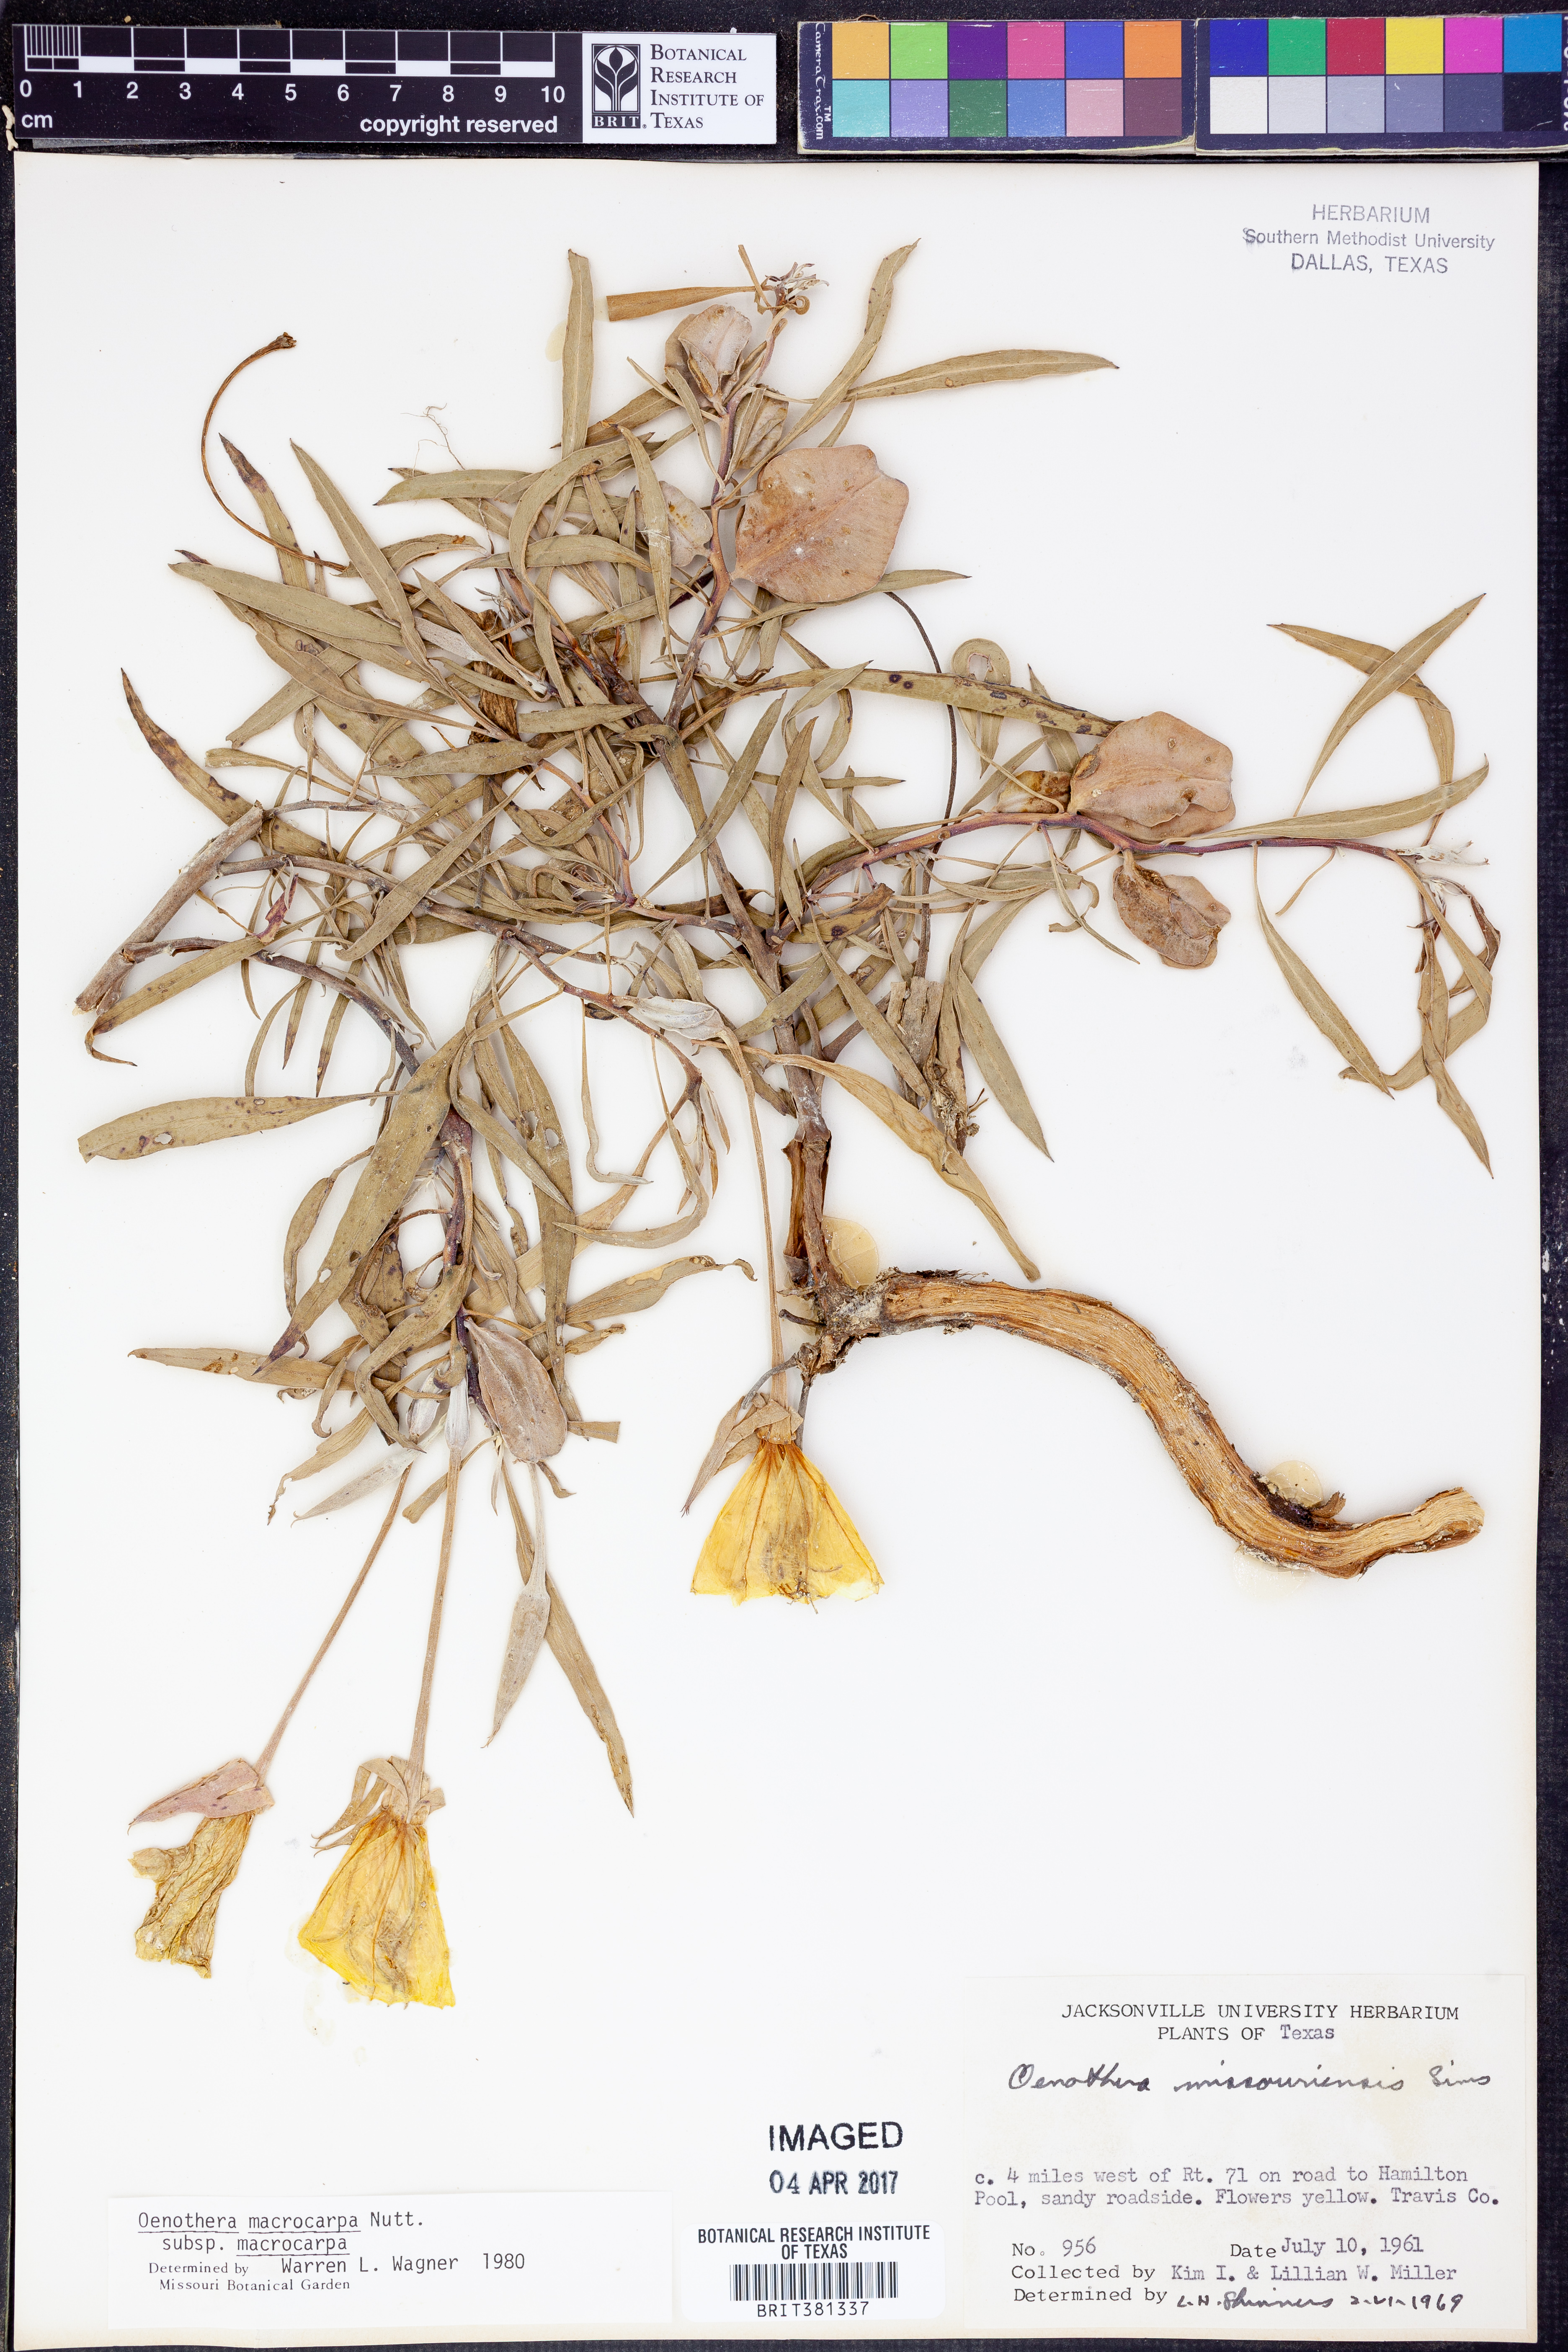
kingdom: Plantae
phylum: Tracheophyta
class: Magnoliopsida
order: Myrtales
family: Onagraceae
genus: Oenothera
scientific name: Oenothera macrocarpa
